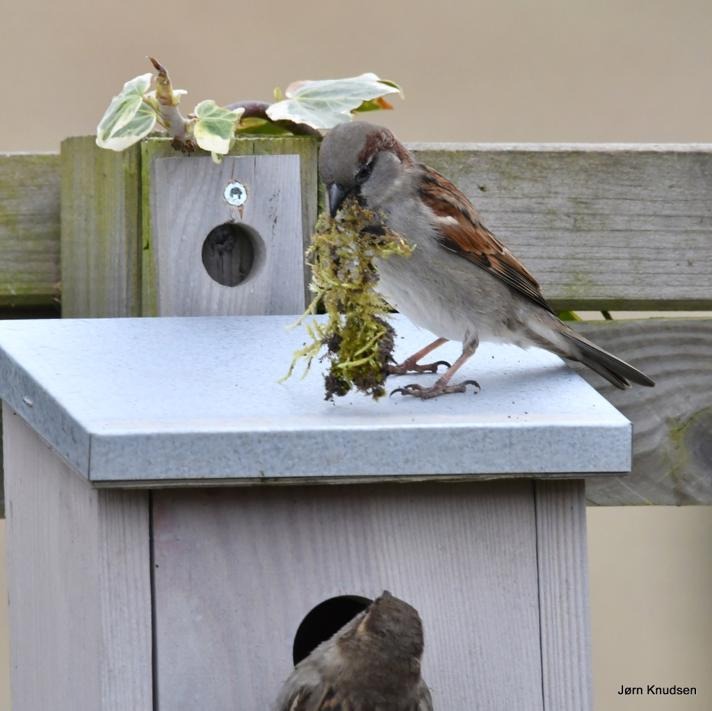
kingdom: Animalia
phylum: Chordata
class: Aves
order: Passeriformes
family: Passeridae
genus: Passer
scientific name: Passer domesticus
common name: Gråspurv
